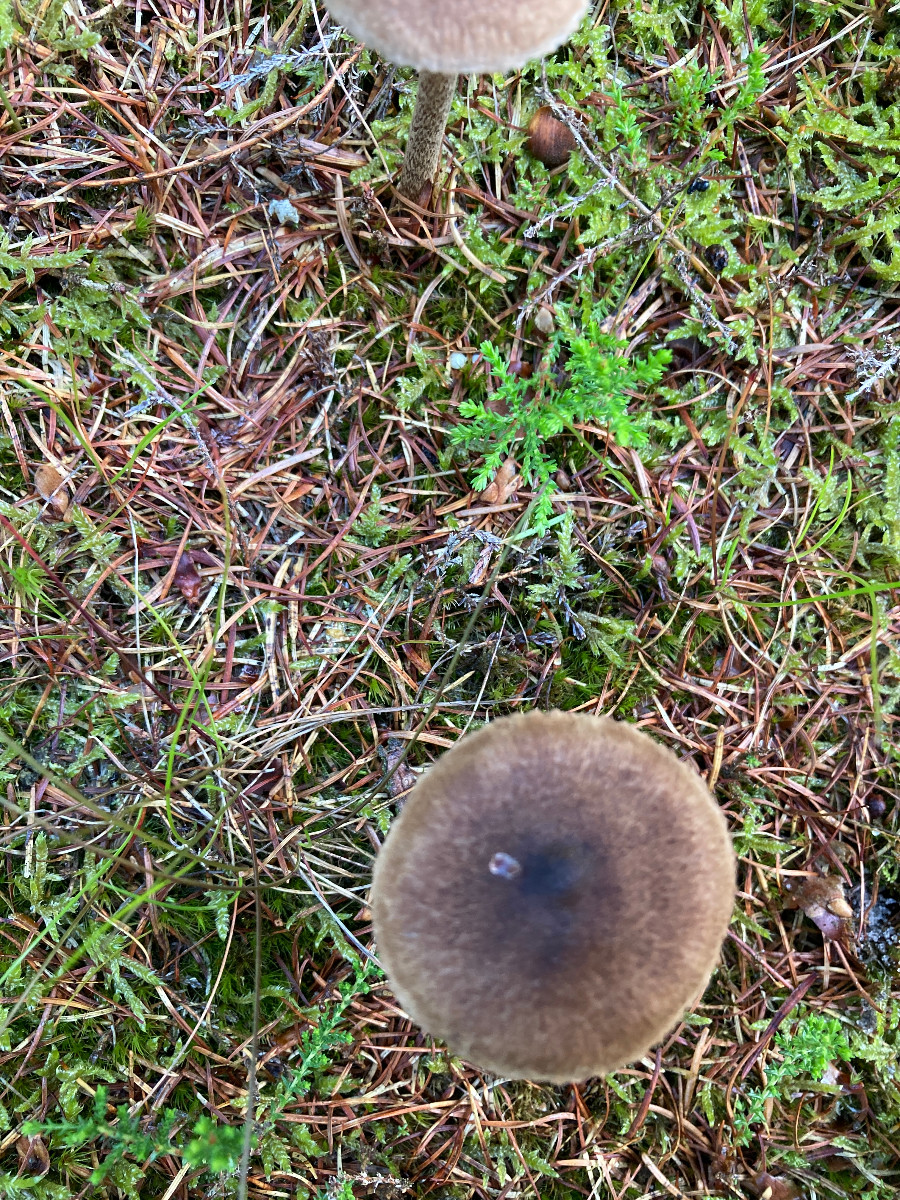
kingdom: Fungi
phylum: Basidiomycota
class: Agaricomycetes
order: Agaricales
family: Inocybaceae
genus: Inocybe
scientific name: Inocybe
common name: trævlhat
